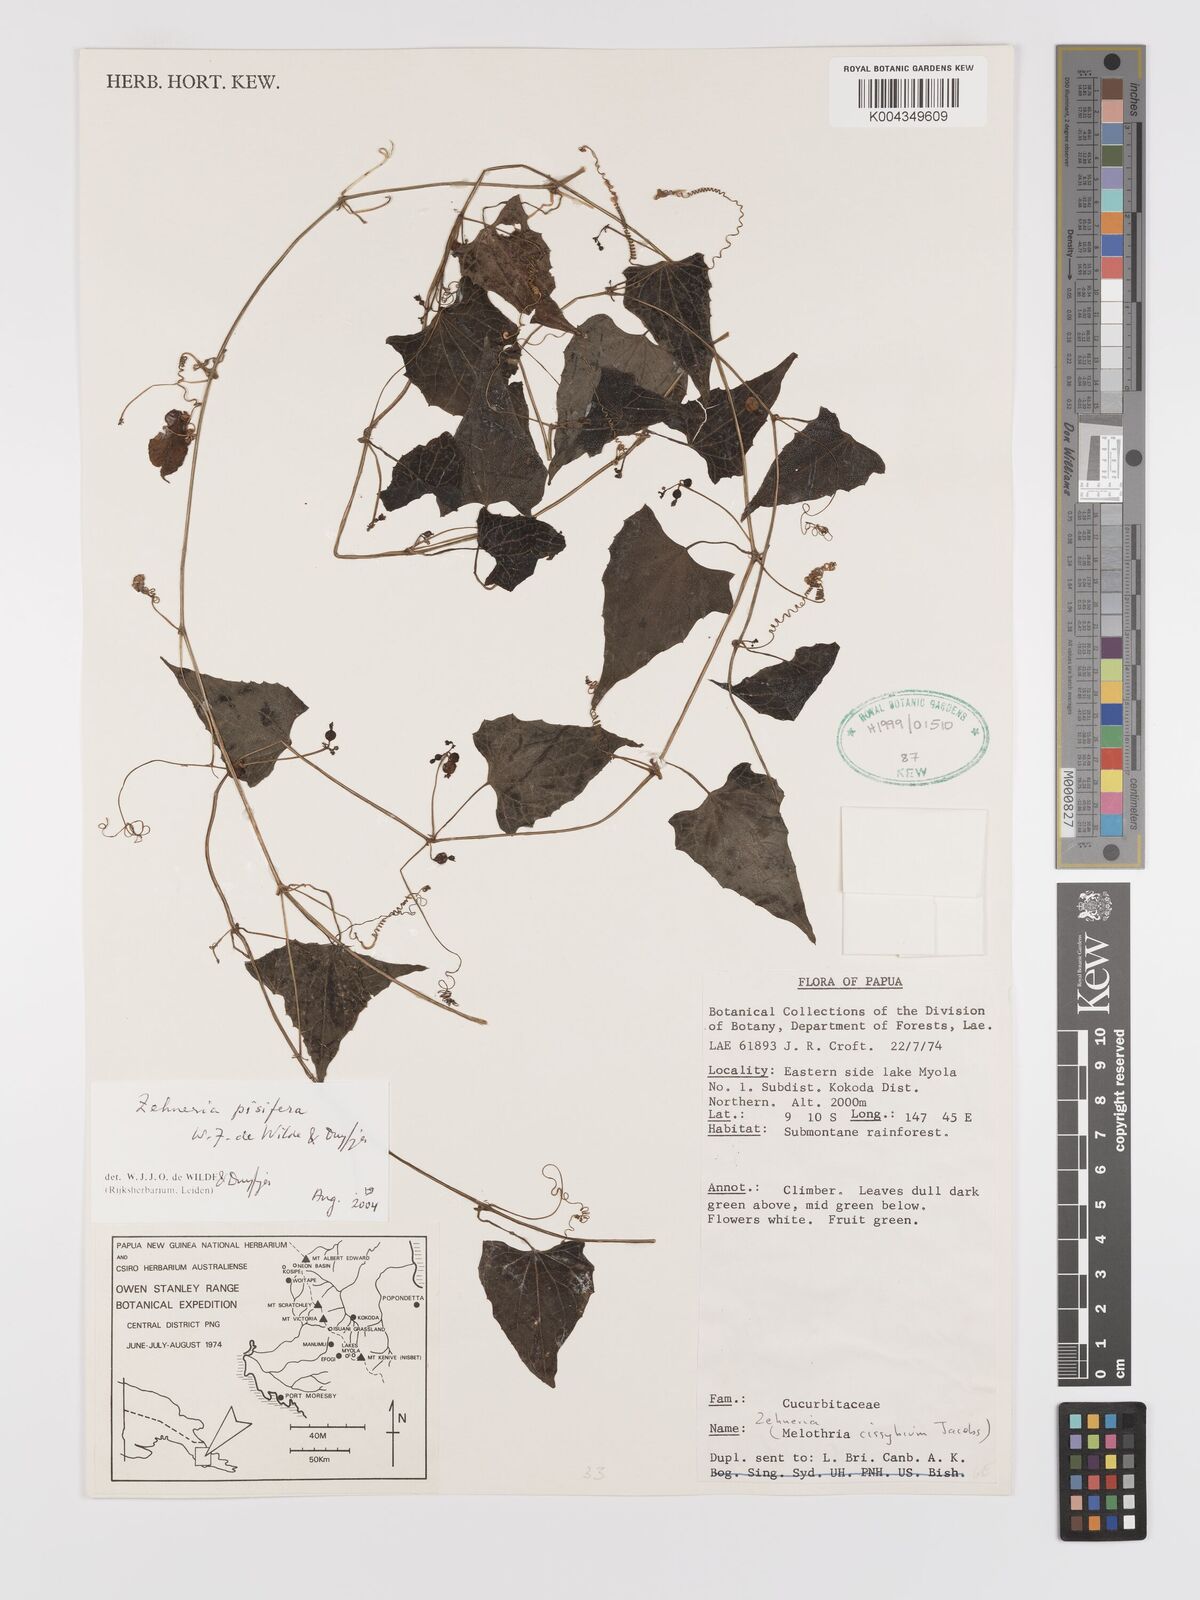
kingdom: Plantae
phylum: Tracheophyta
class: Magnoliopsida
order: Cucurbitales
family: Cucurbitaceae
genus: Zehneria
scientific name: Zehneria pisifera
